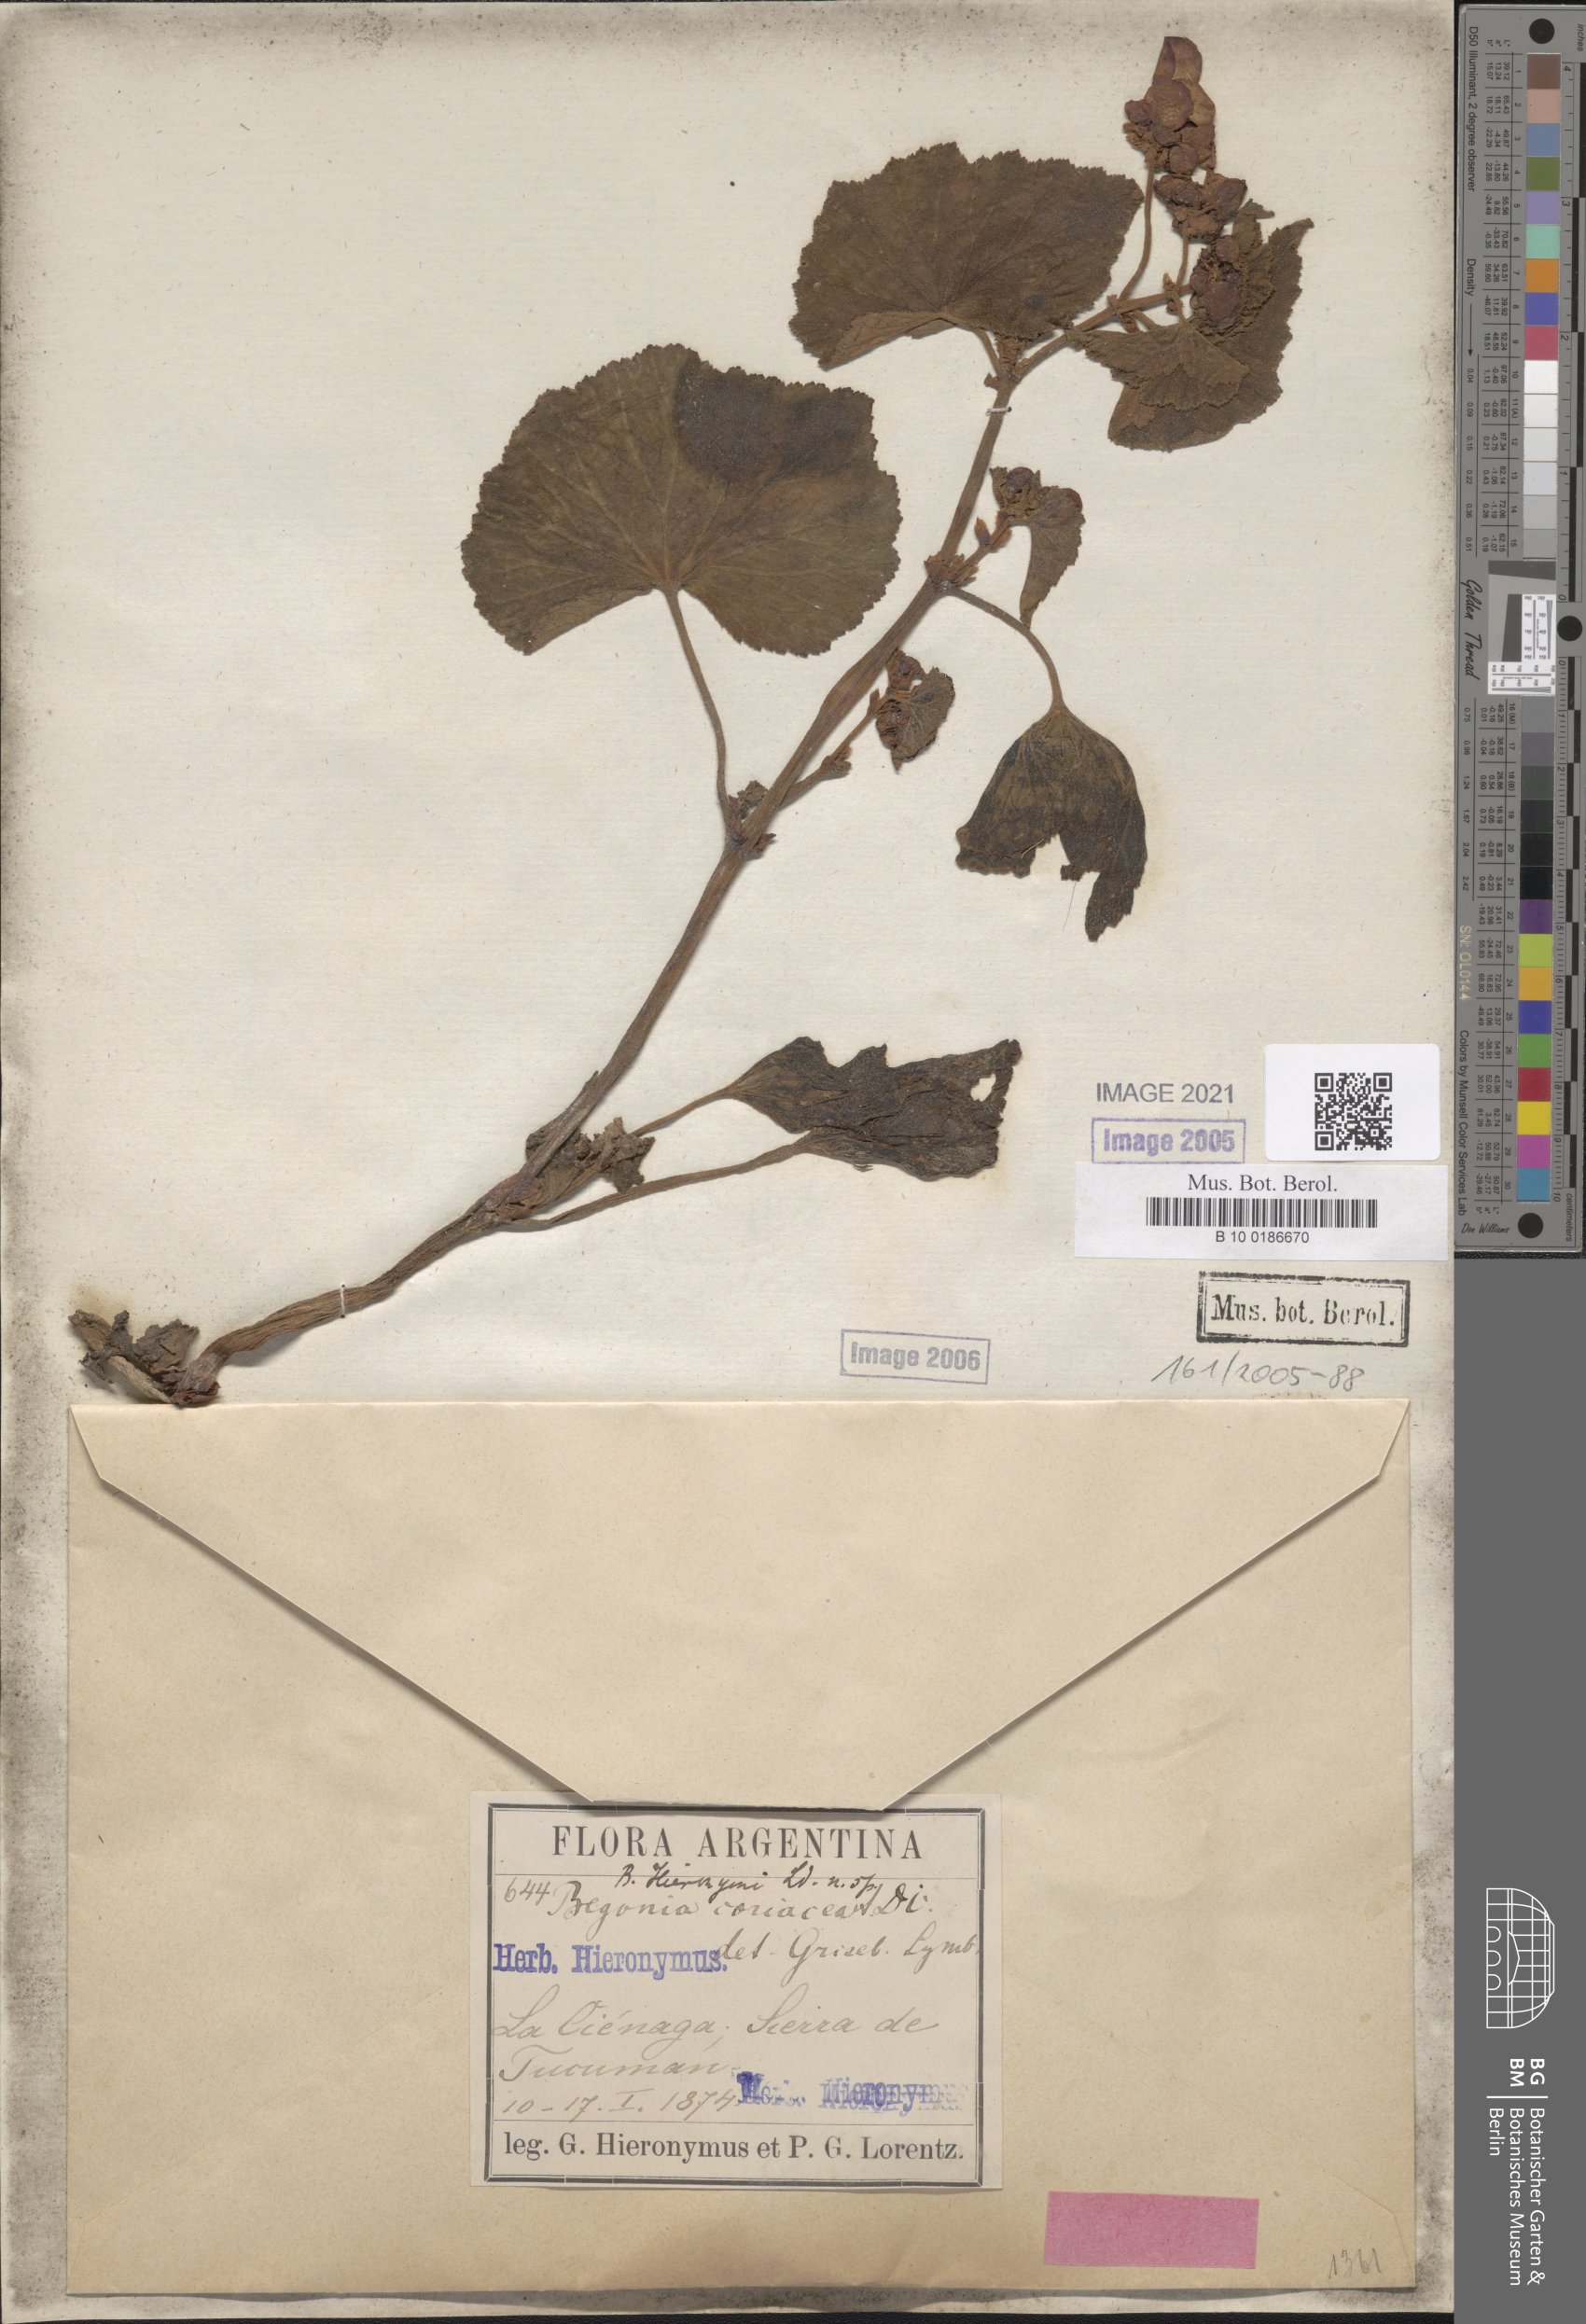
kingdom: Plantae
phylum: Tracheophyta
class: Magnoliopsida
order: Cucurbitales
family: Begoniaceae
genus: Begonia
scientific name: Begonia micranthera
